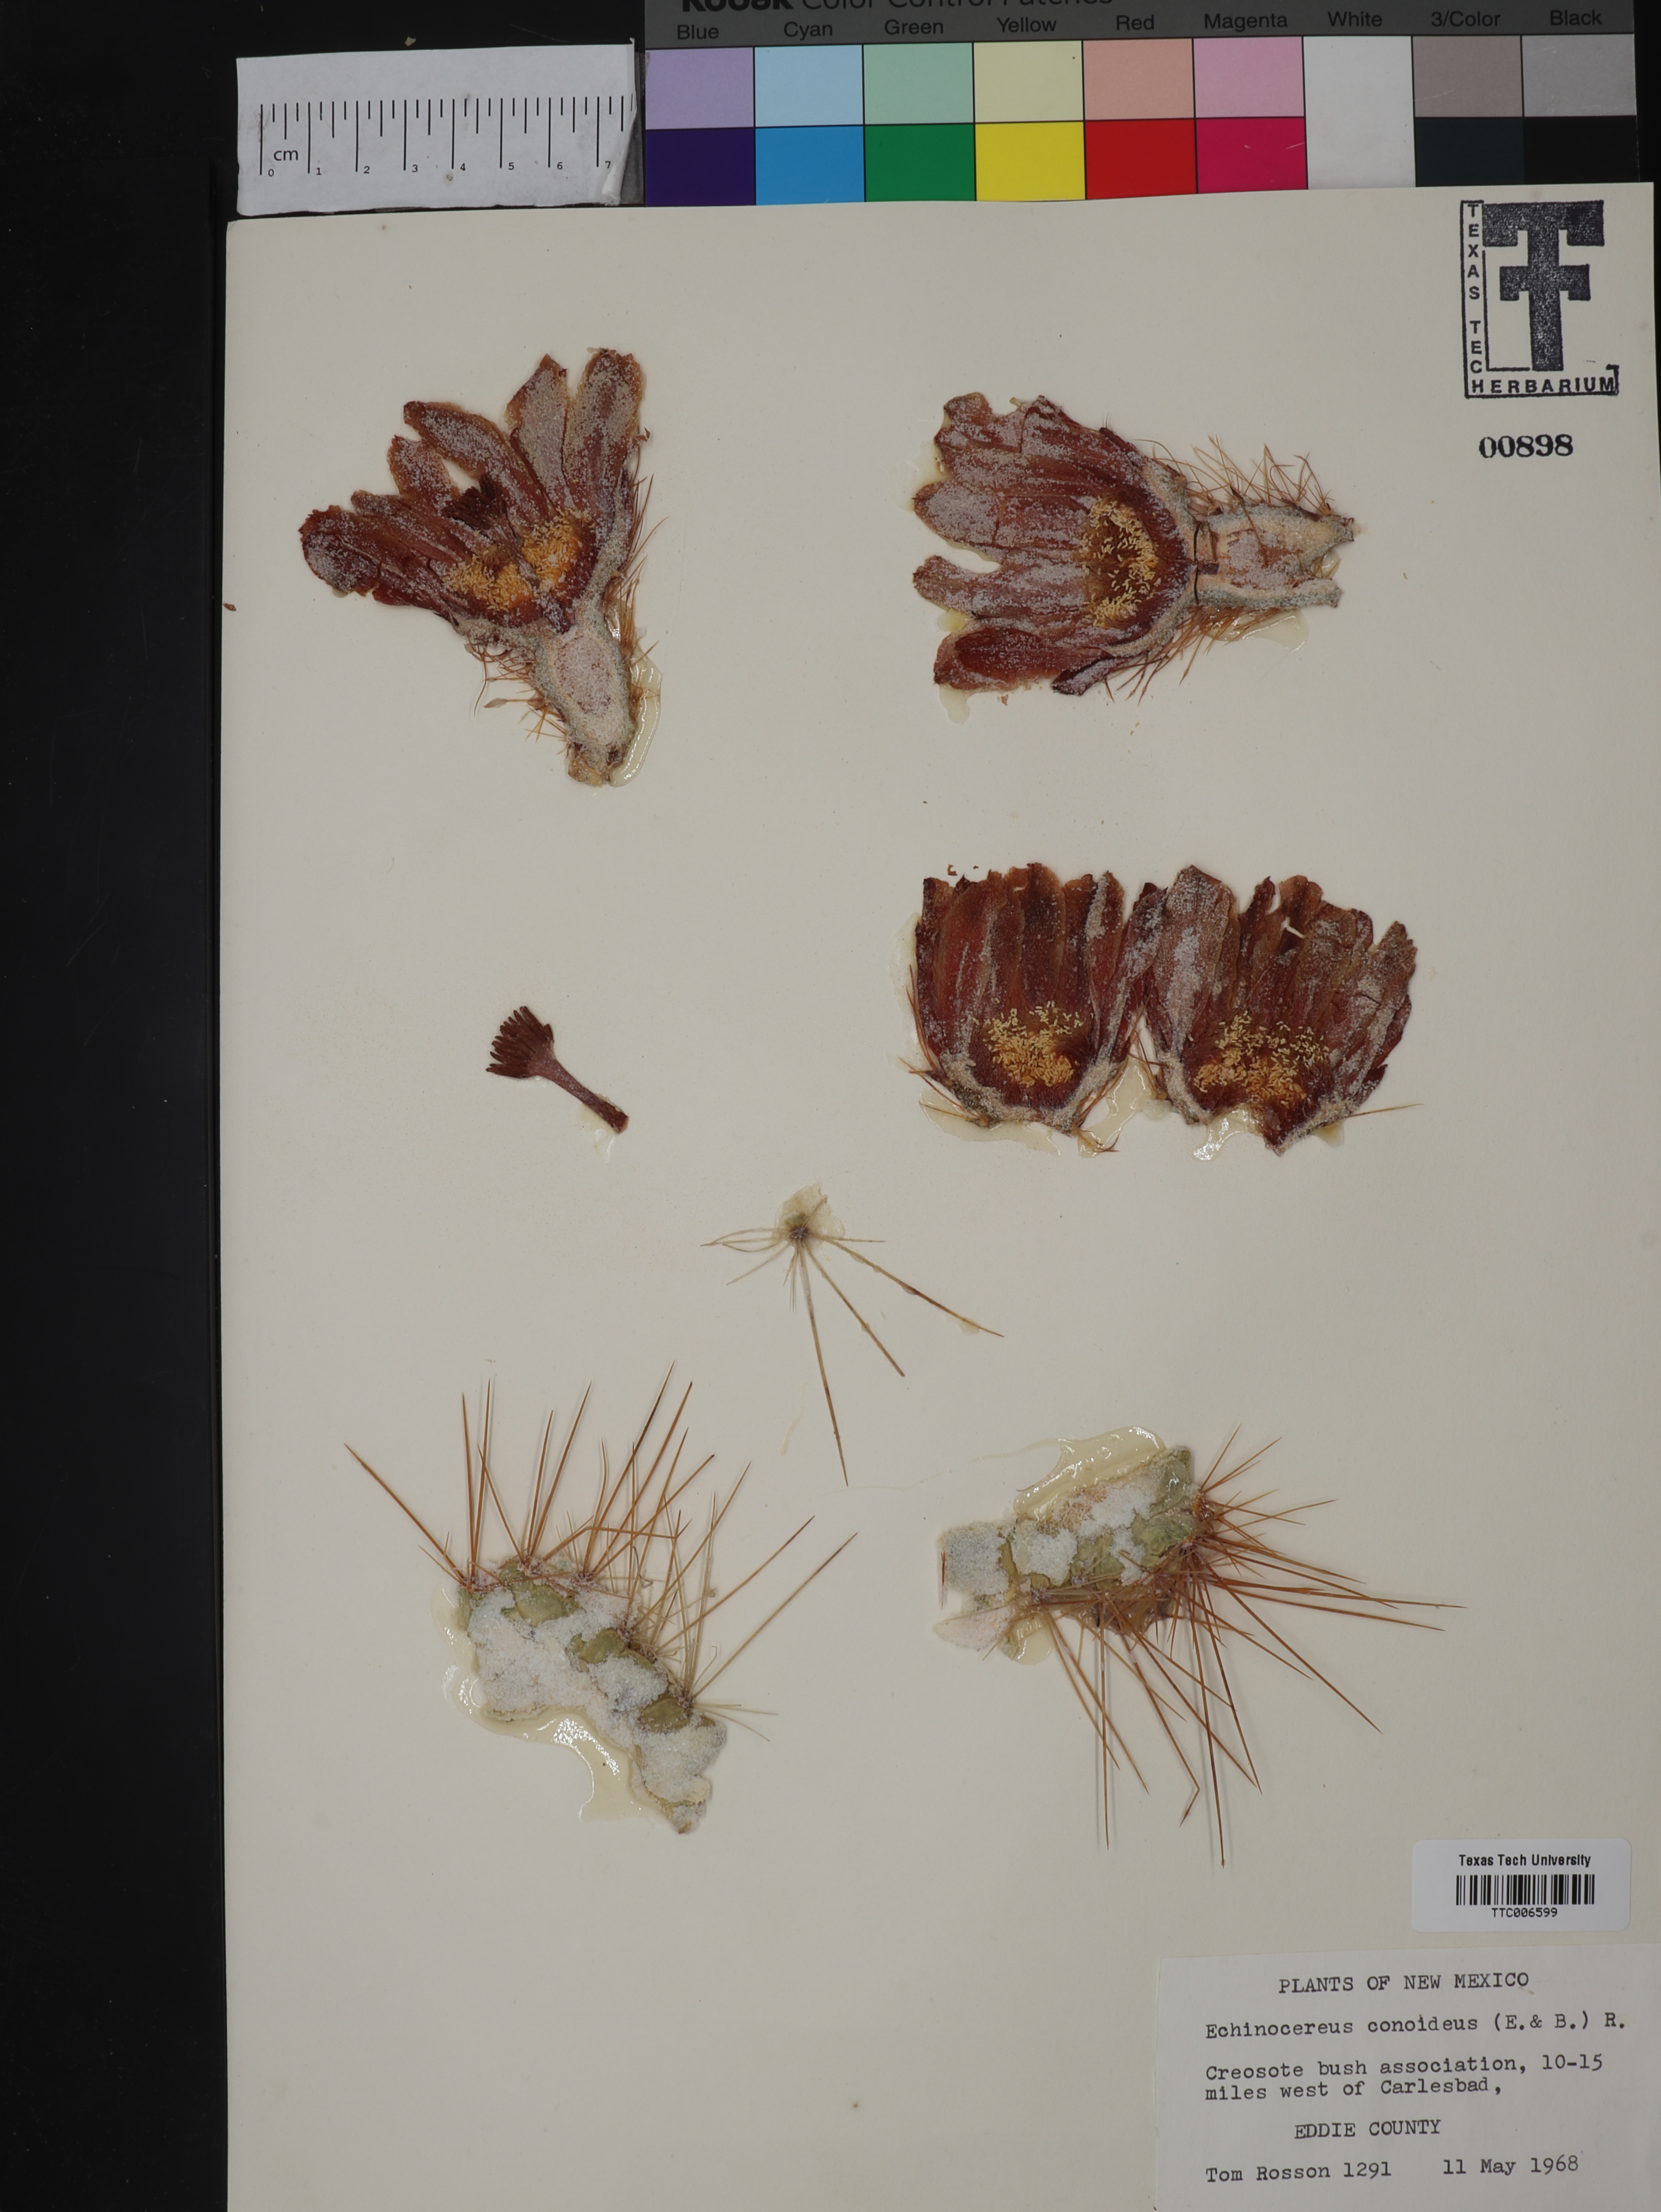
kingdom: Plantae
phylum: Tracheophyta
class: Magnoliopsida
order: Caryophyllales
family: Cactaceae
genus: Cochemiea
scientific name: Cochemiea conoidea
